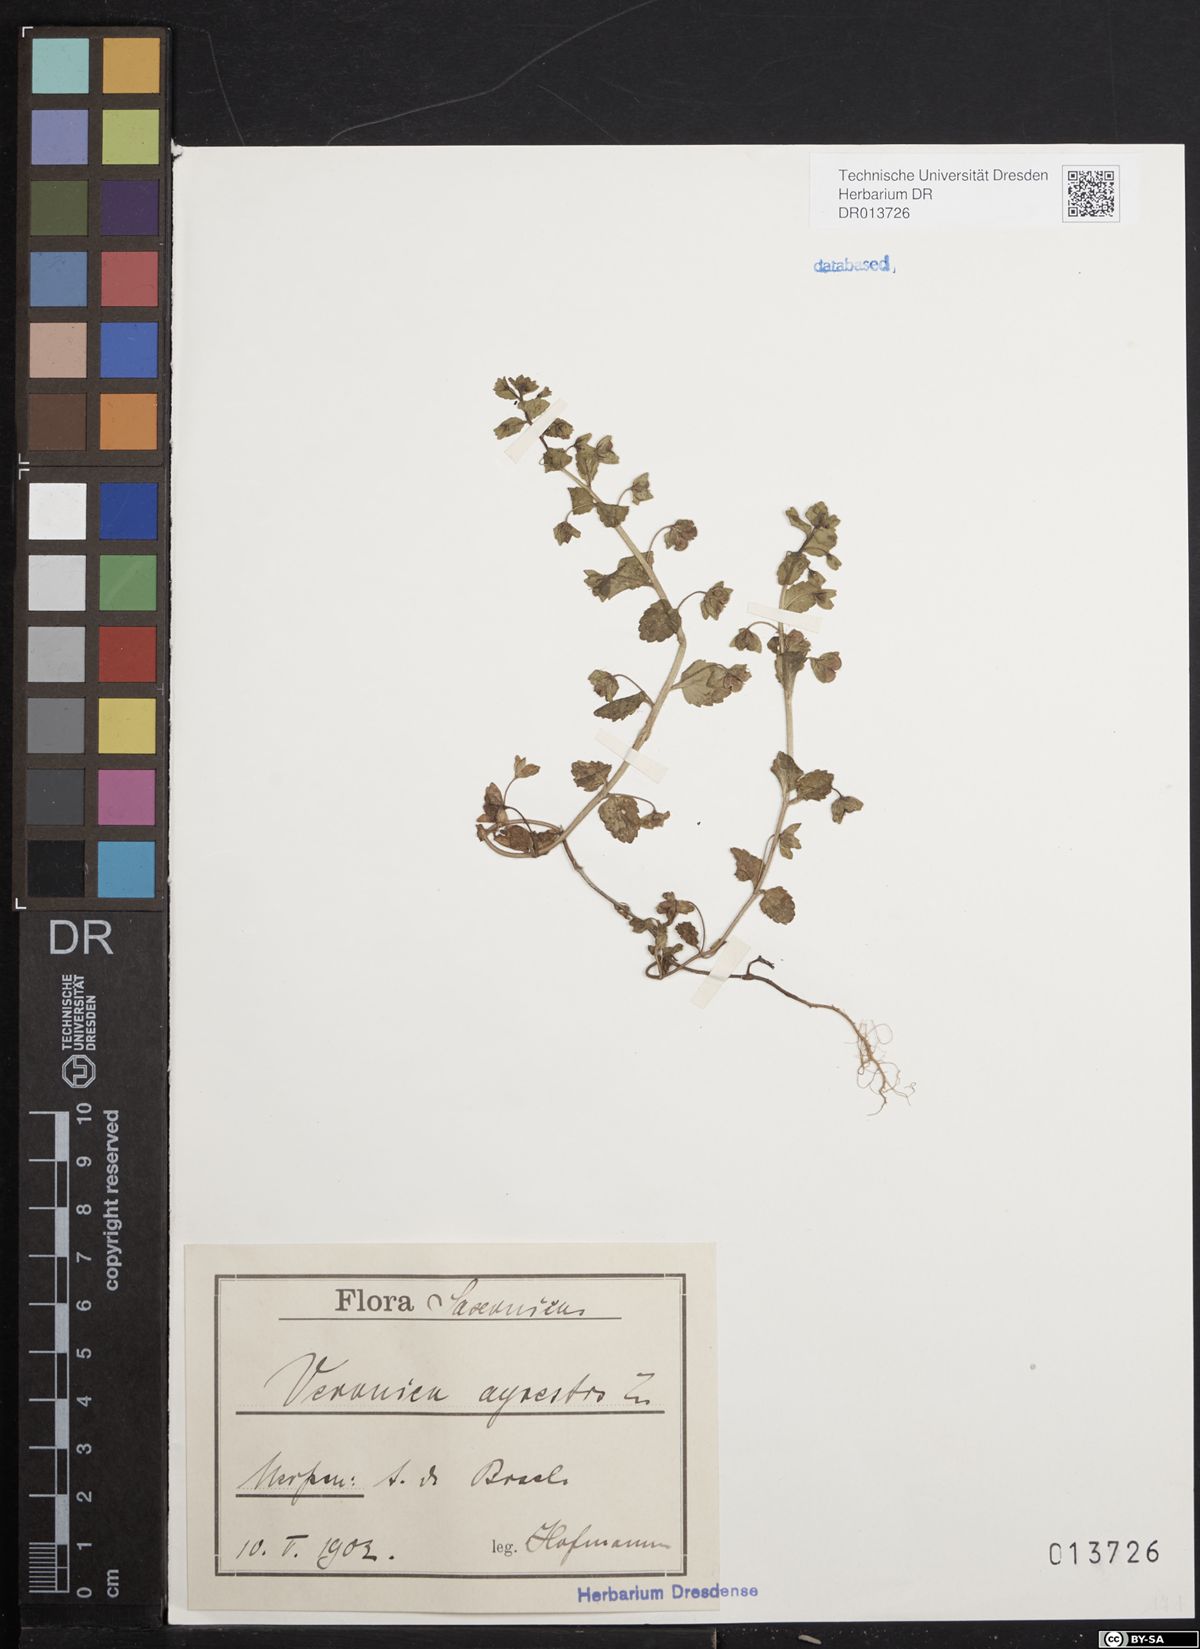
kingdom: Plantae
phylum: Tracheophyta
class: Magnoliopsida
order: Lamiales
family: Plantaginaceae
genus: Veronica
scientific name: Veronica agrestis
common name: Green field-speedwell
